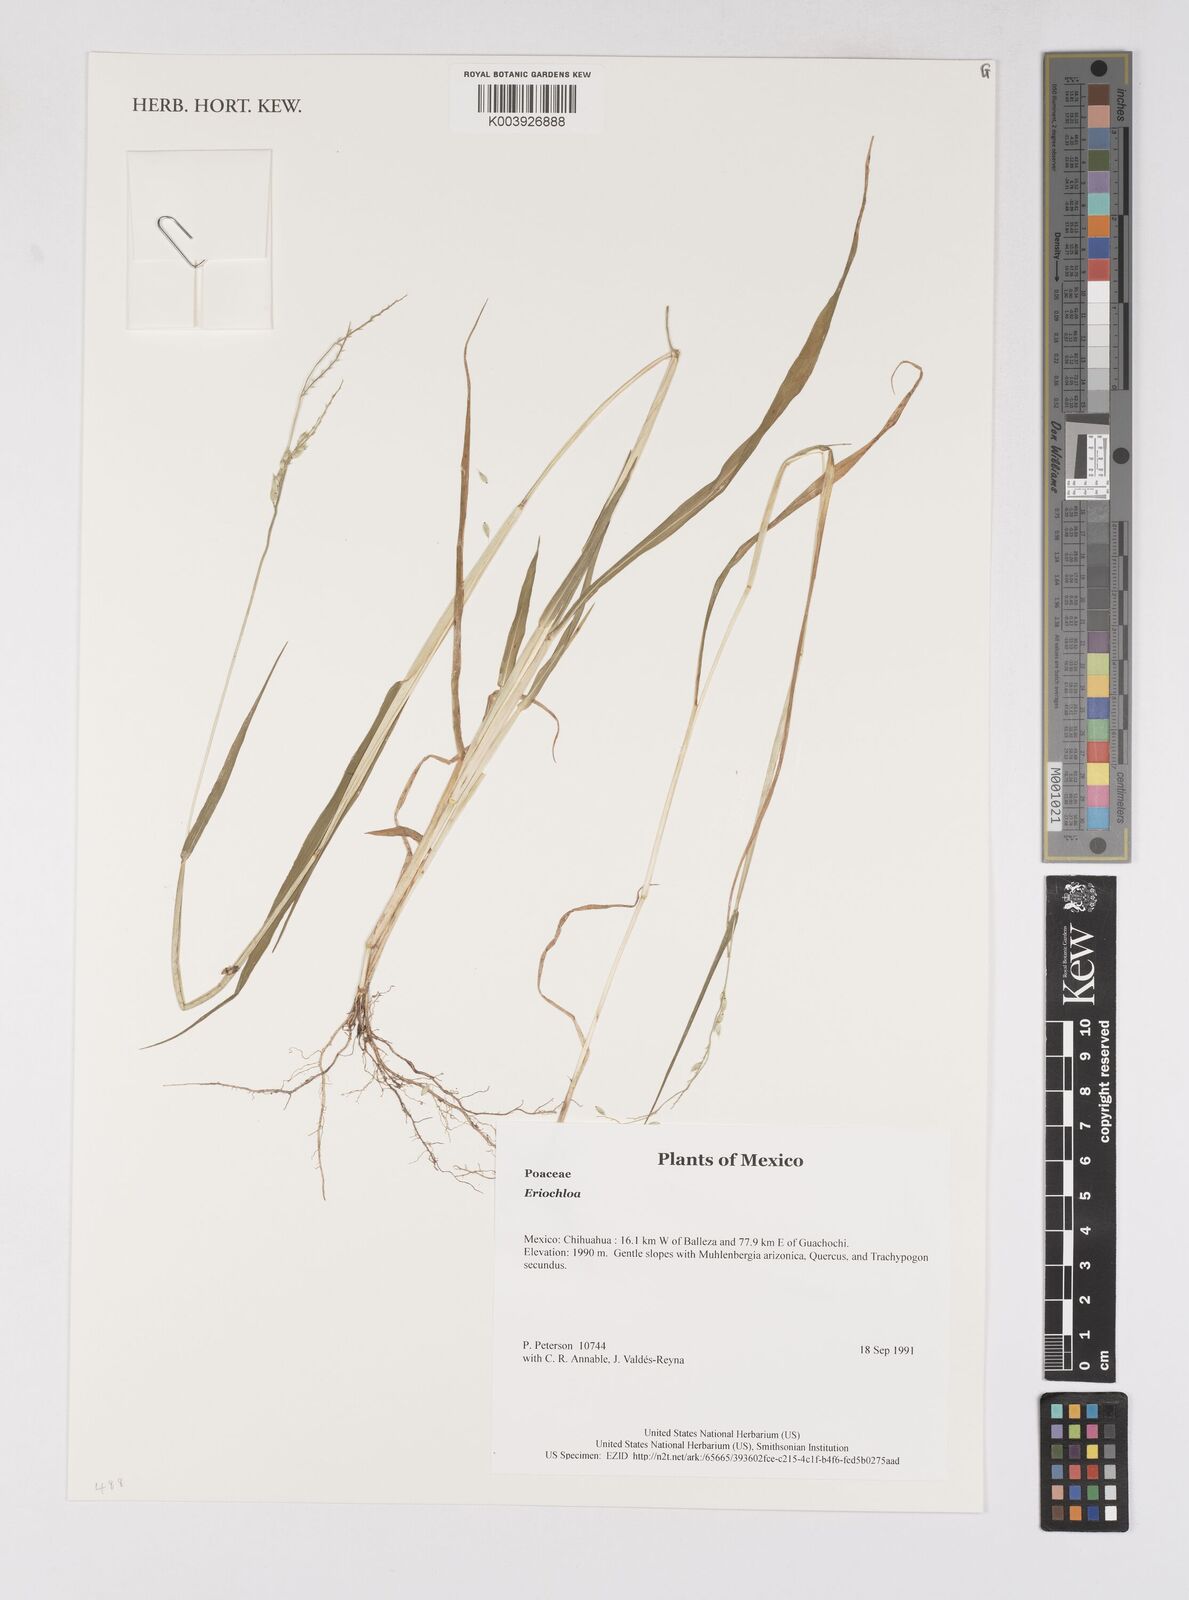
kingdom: Plantae
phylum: Tracheophyta
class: Liliopsida
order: Poales
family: Poaceae
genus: Eriochloa
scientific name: Eriochloa
